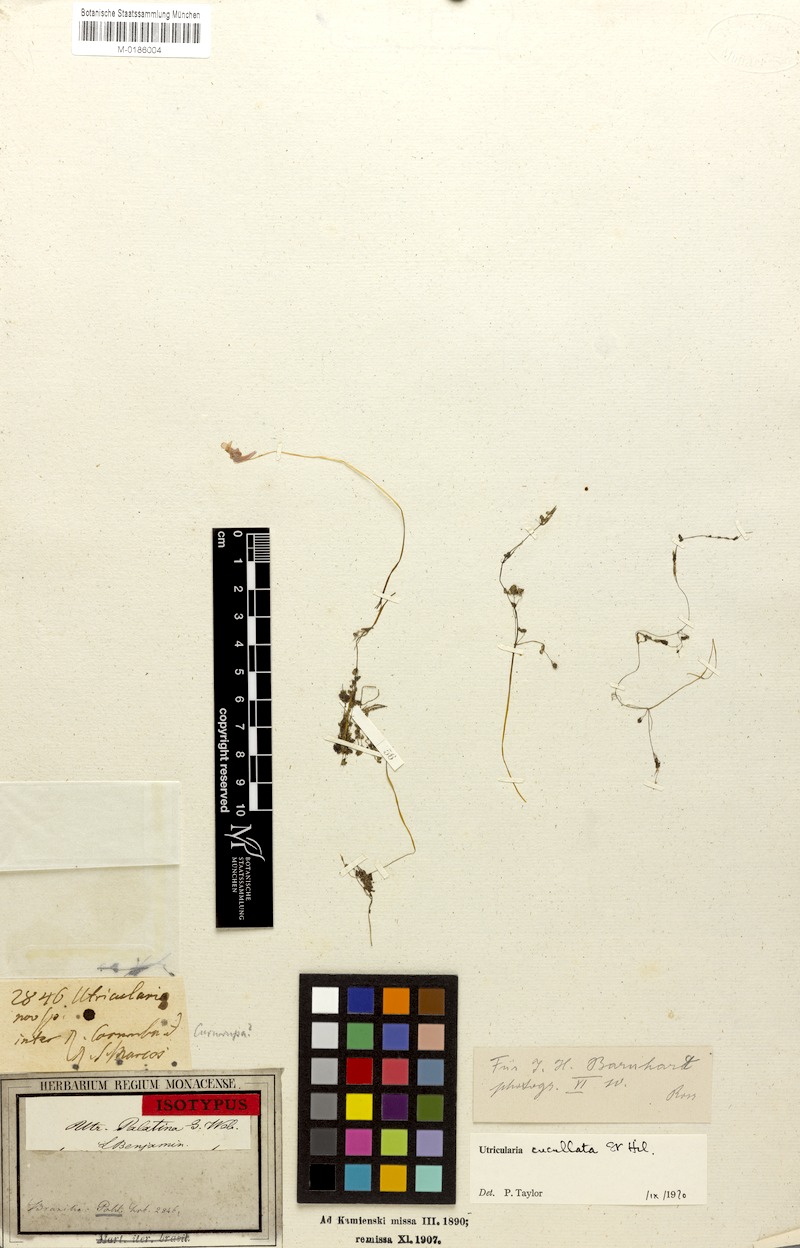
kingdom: Plantae
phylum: Tracheophyta
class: Magnoliopsida
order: Lamiales
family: Lentibulariaceae
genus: Utricularia
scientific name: Utricularia cucullata
